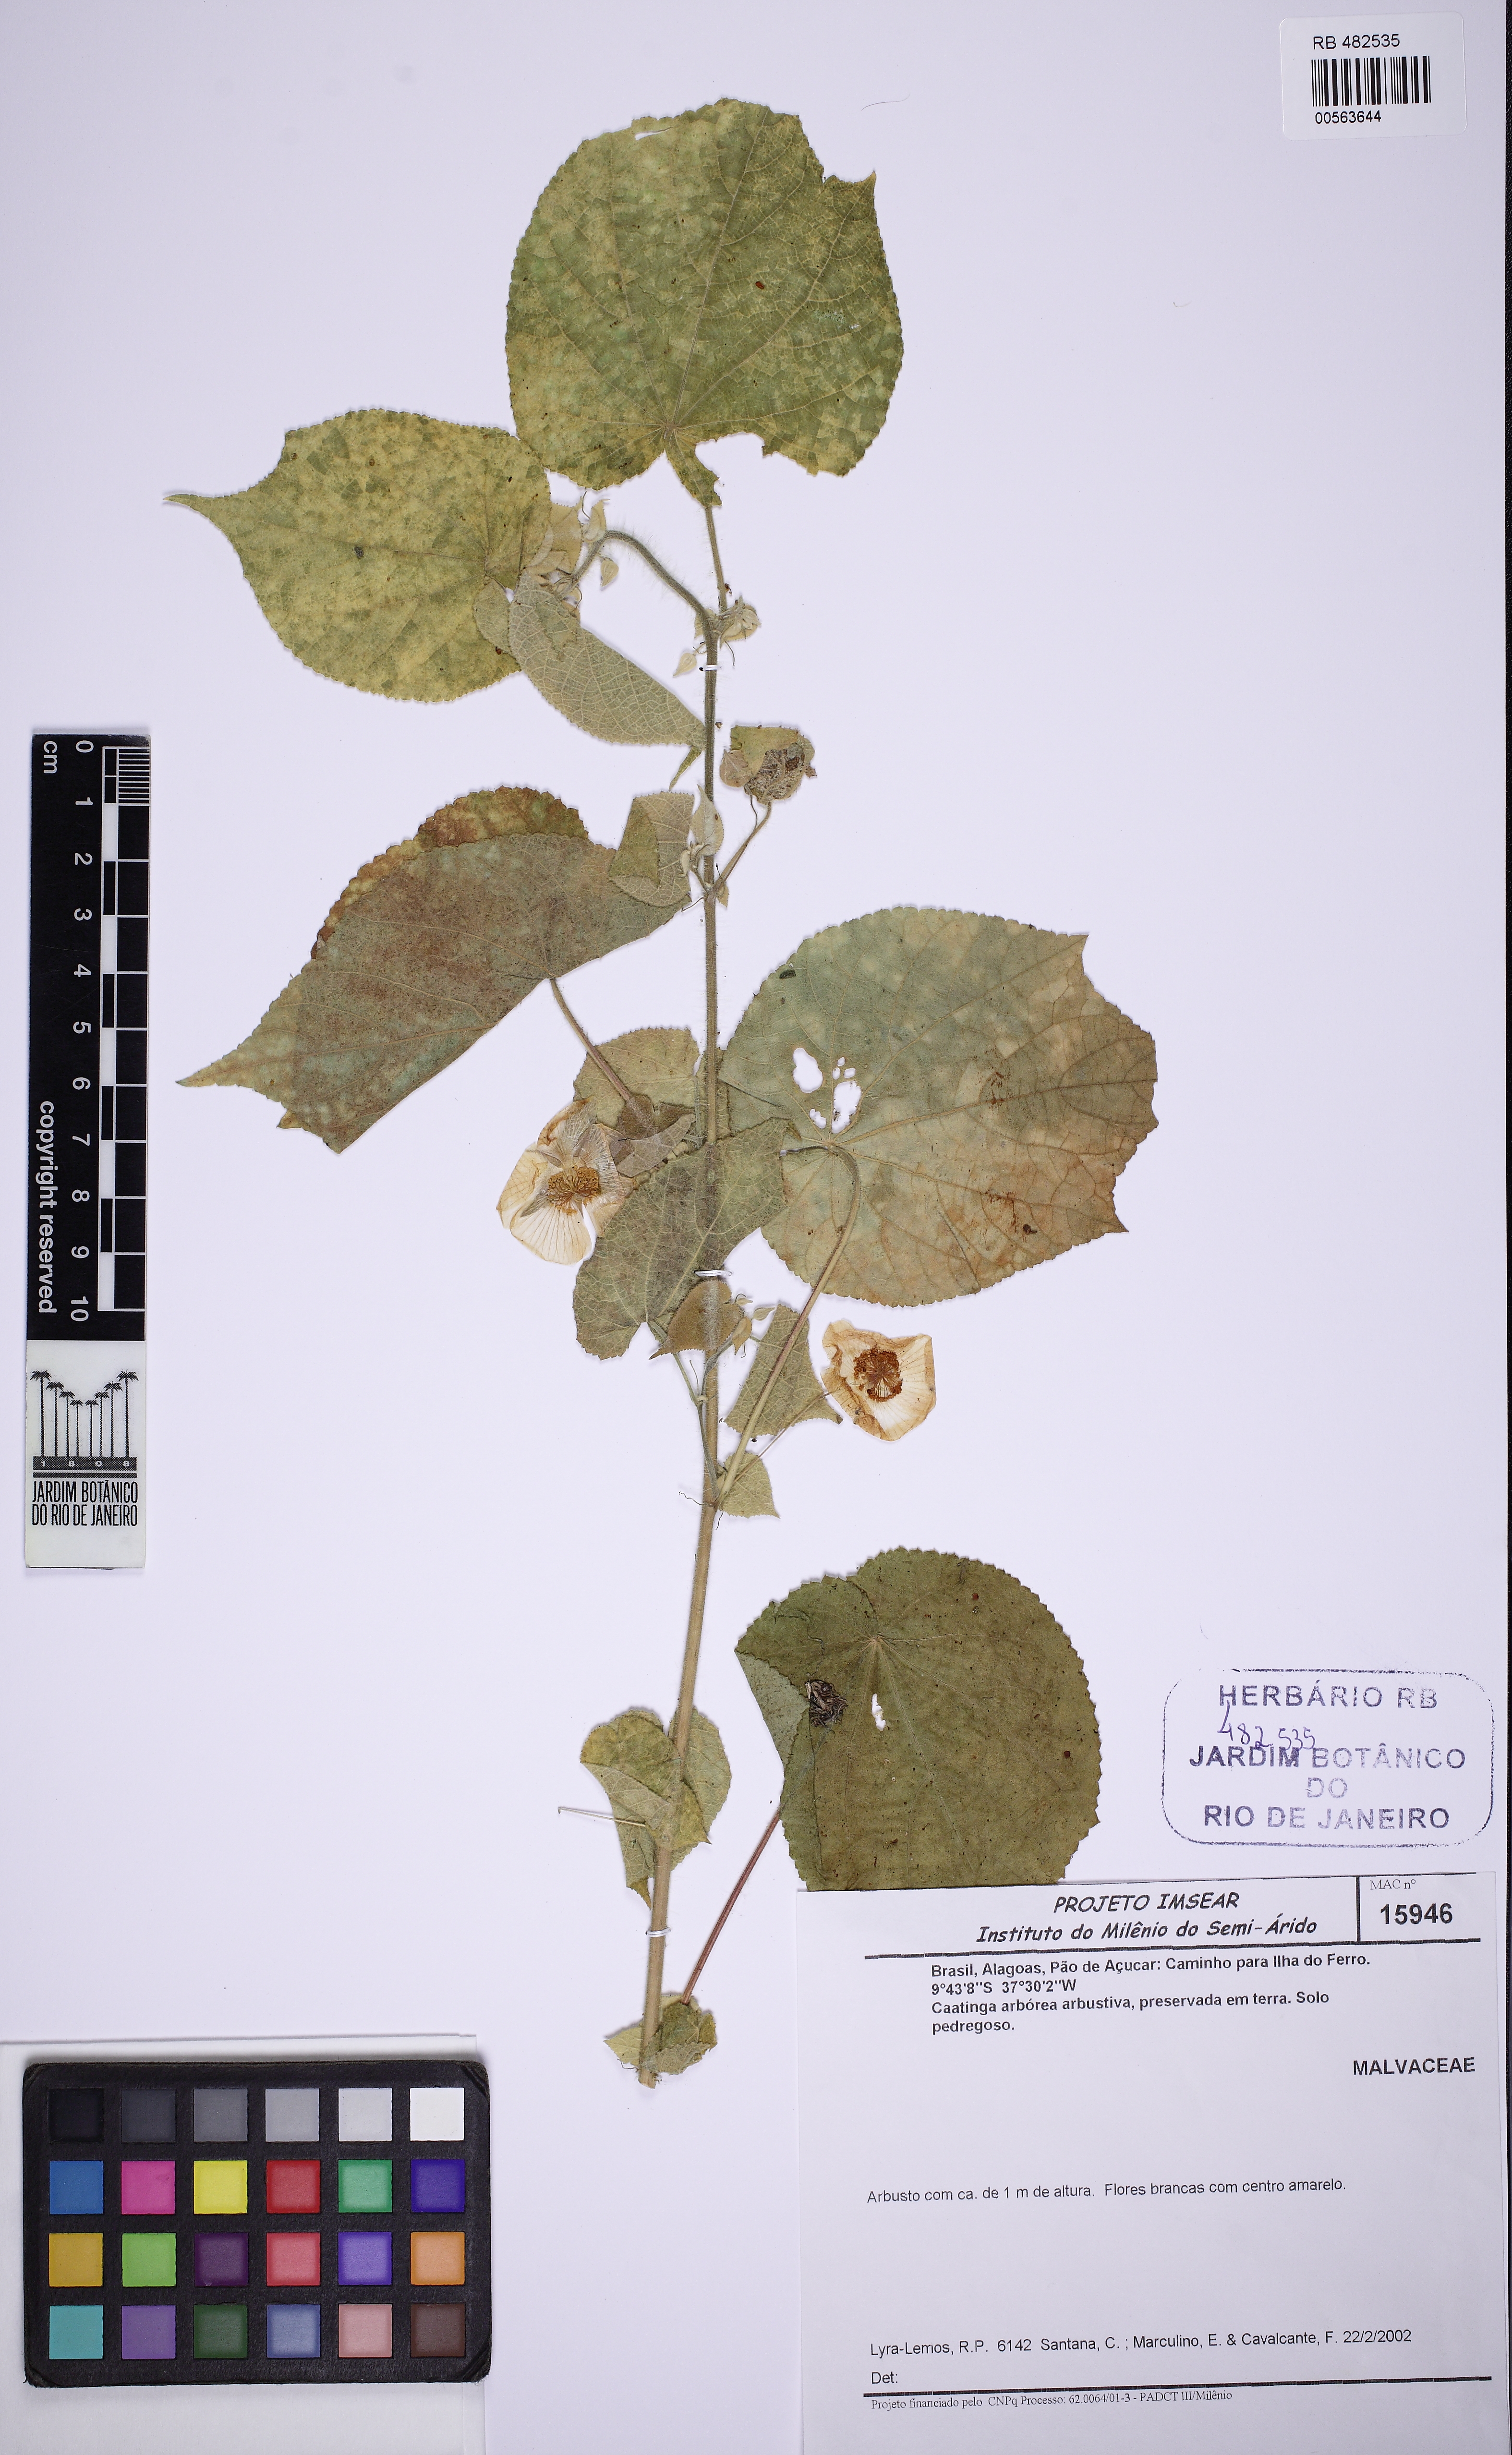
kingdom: Plantae
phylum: Tracheophyta
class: Magnoliopsida
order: Malvales
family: Malvaceae
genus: Herissantia
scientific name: Herissantia
